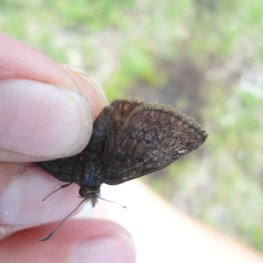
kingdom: Animalia
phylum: Arthropoda
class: Insecta
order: Lepidoptera
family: Hesperiidae
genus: Erynnis
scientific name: Erynnis icelus
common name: Dreamy Duskywing
